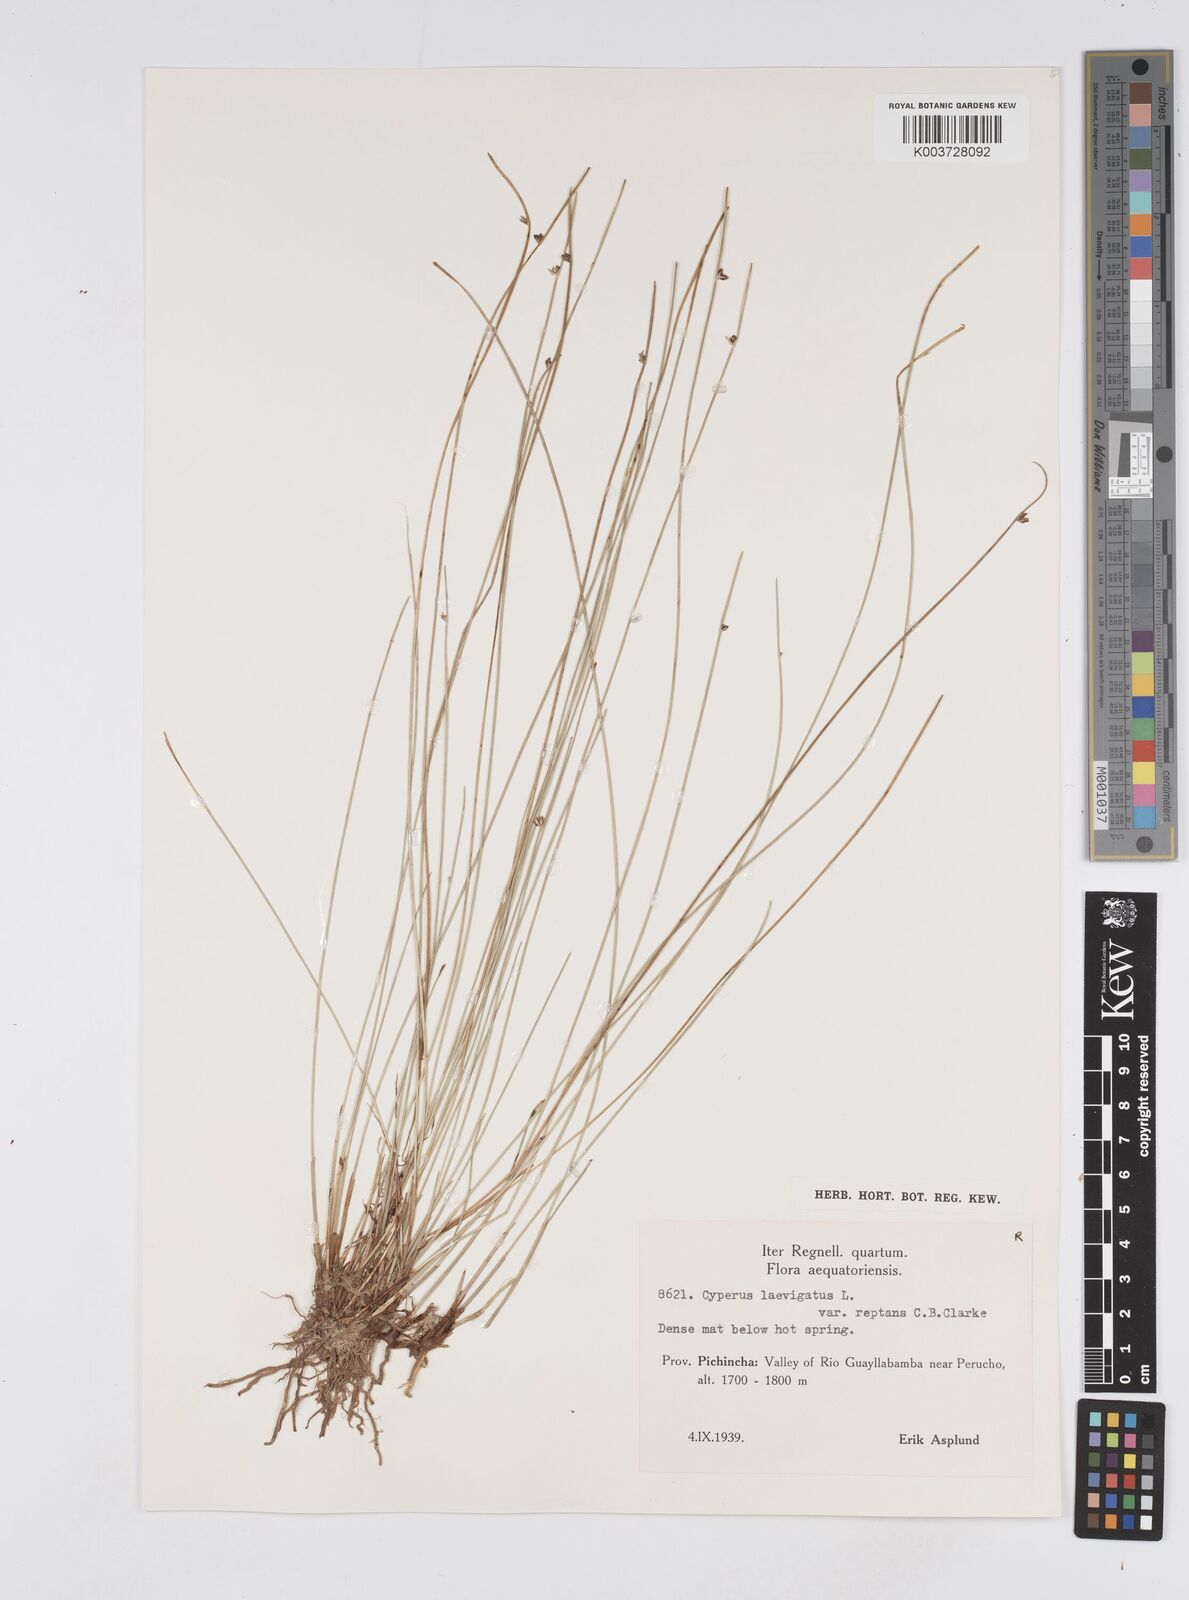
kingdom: Plantae
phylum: Tracheophyta
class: Liliopsida
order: Poales
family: Cyperaceae
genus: Cyperus
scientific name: Cyperus laevigatus
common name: Smooth flat sedge
